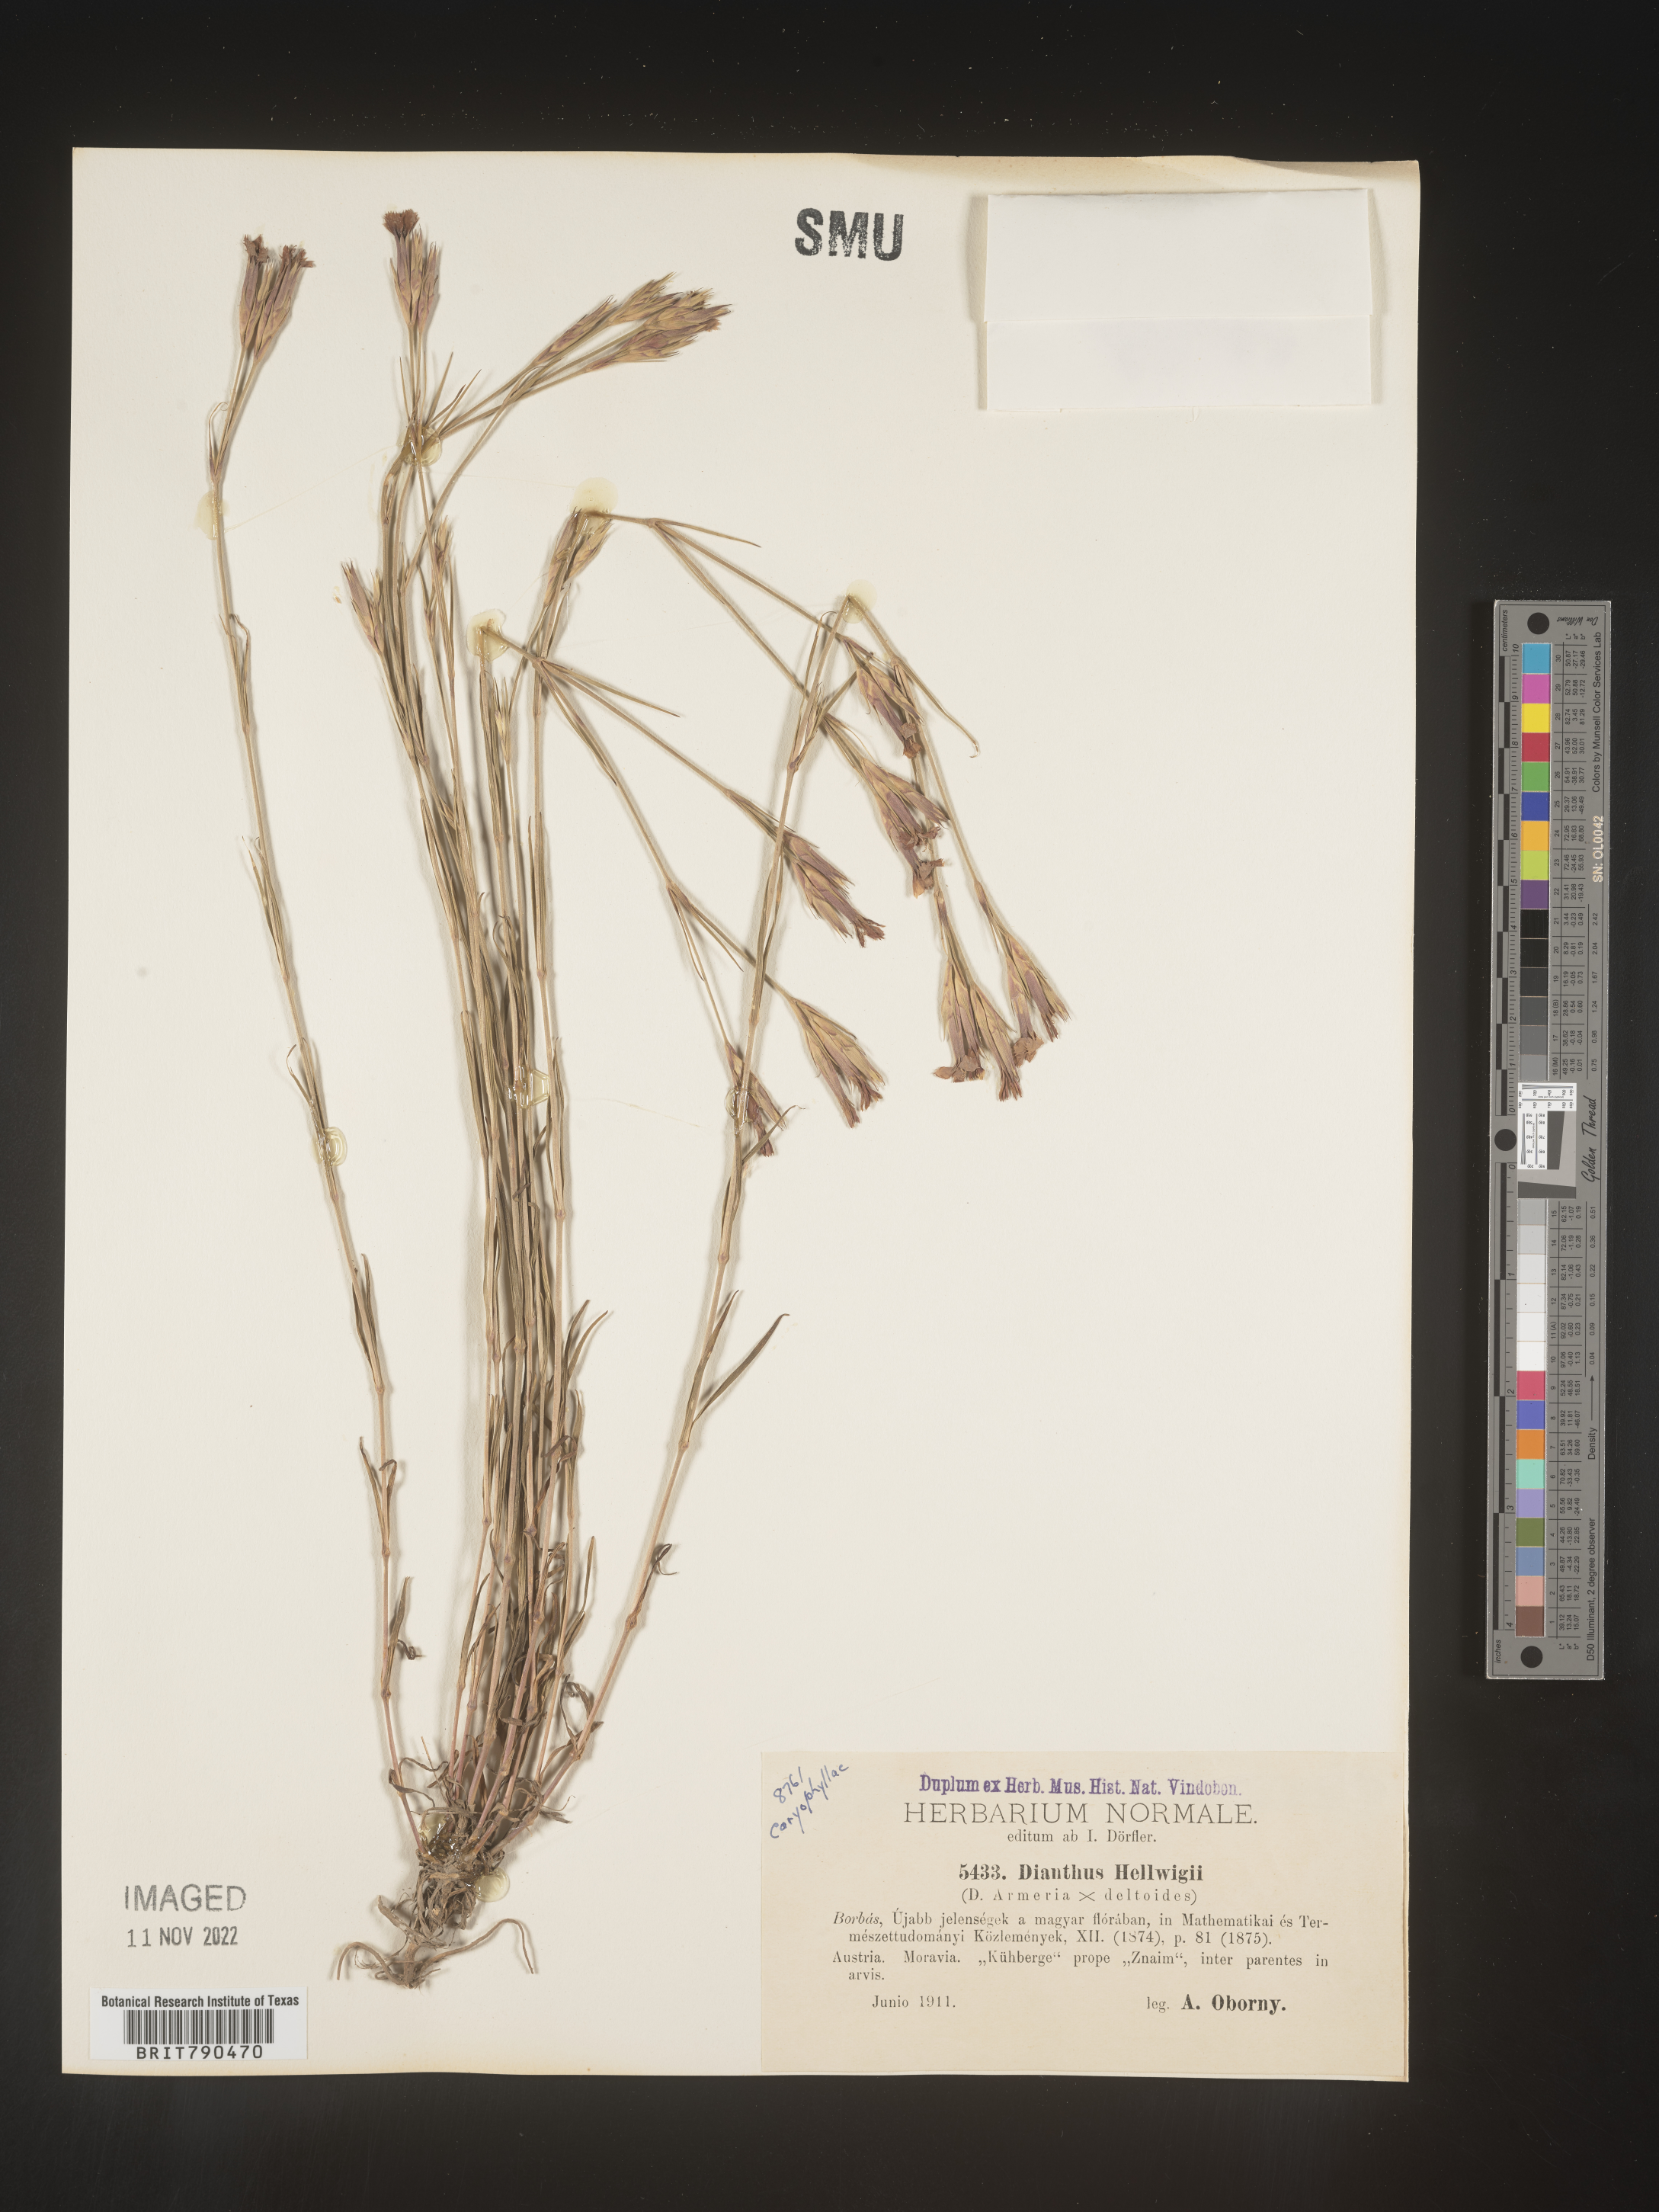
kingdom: Plantae
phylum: Tracheophyta
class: Magnoliopsida
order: Caryophyllales
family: Caryophyllaceae
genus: Dianthus
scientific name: Dianthus
